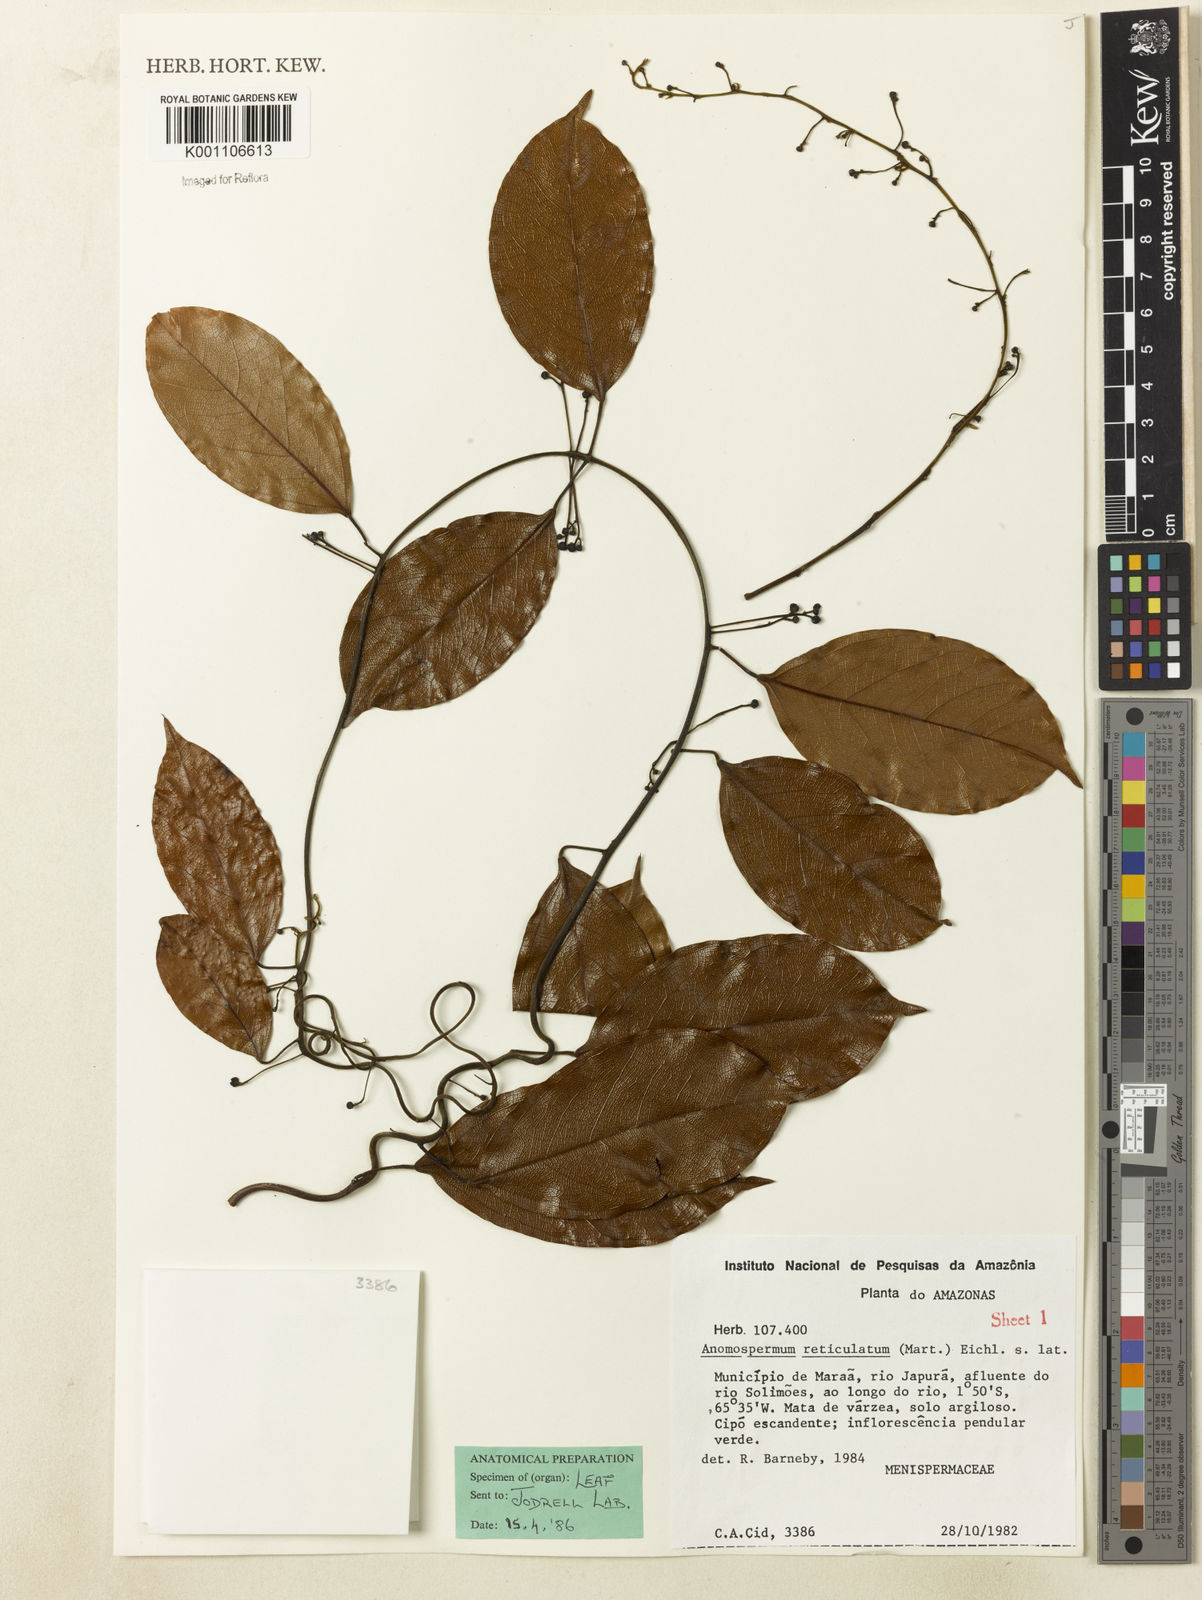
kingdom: Plantae
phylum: Tracheophyta
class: Magnoliopsida
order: Ranunculales
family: Menispermaceae
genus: Anomospermum
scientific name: Anomospermum reticulatum
